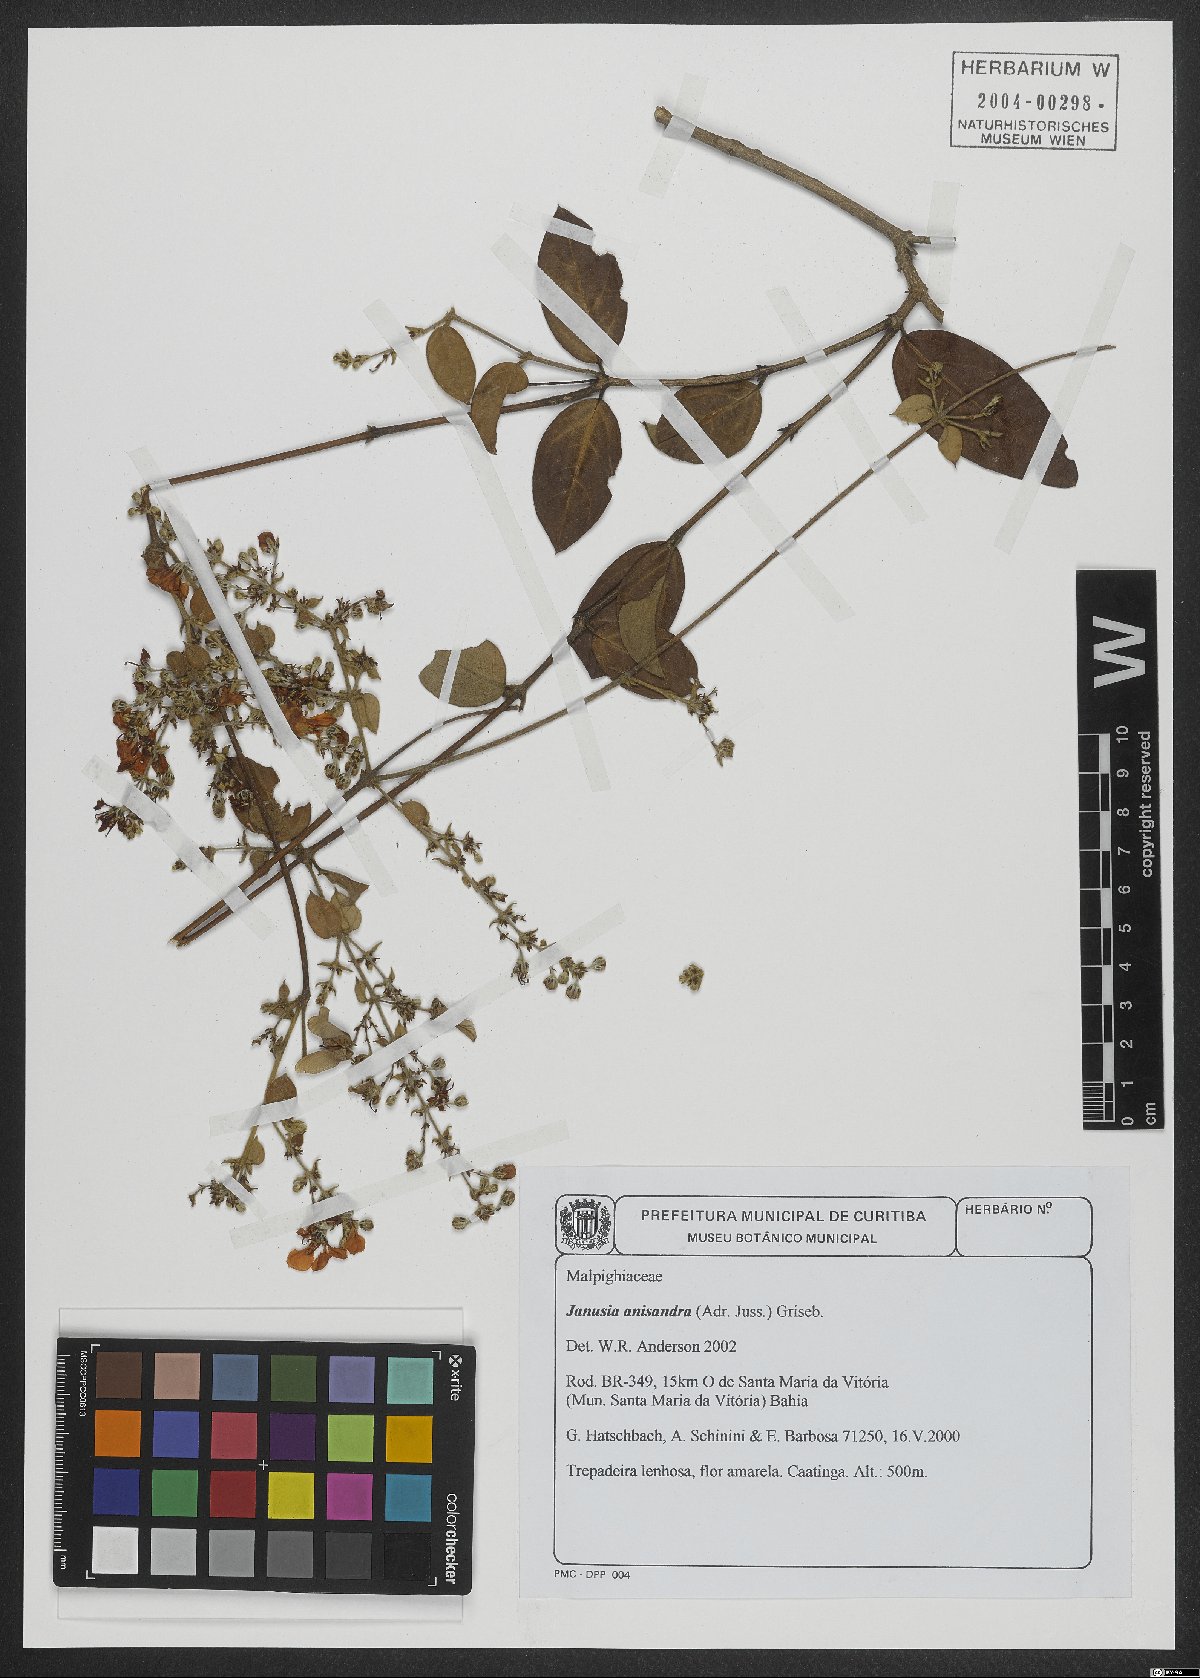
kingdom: Plantae
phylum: Tracheophyta
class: Magnoliopsida
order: Malpighiales
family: Malpighiaceae
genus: Janusia
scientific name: Janusia anisandra
